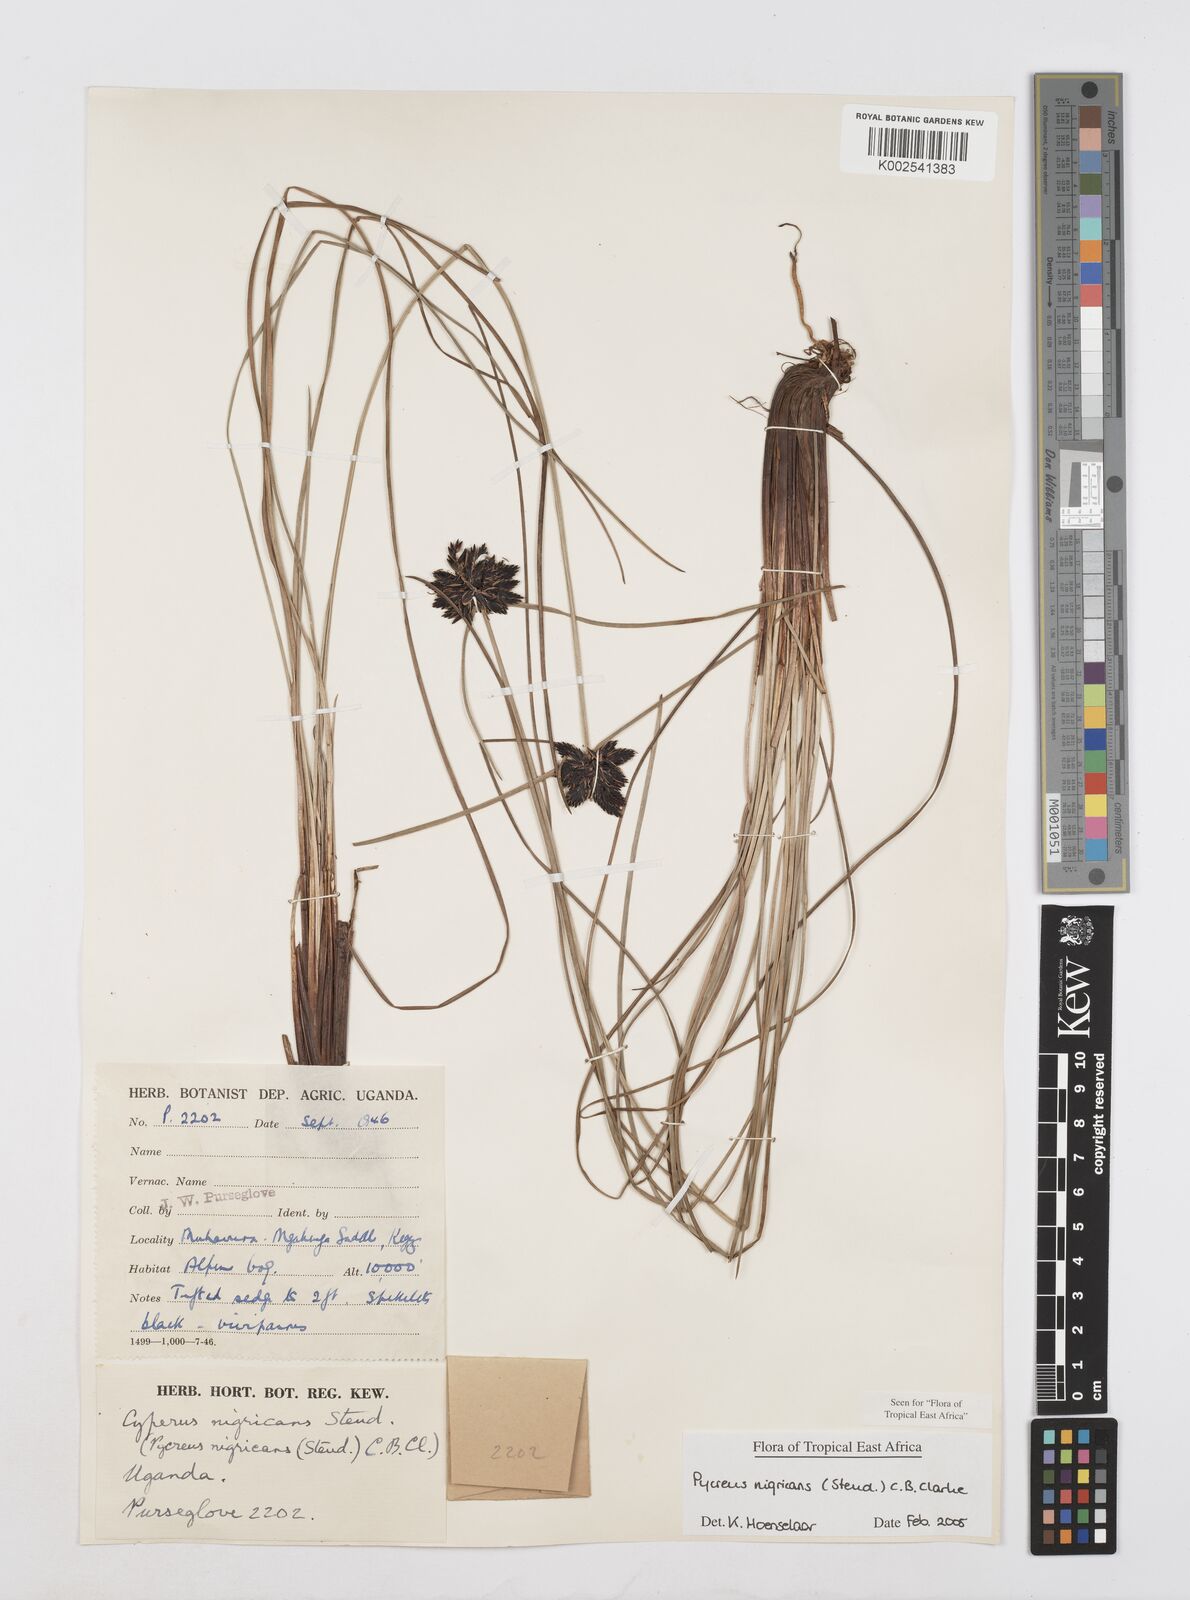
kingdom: Plantae
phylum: Tracheophyta
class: Liliopsida
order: Poales
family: Cyperaceae
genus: Cyperus
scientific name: Cyperus nigricans
